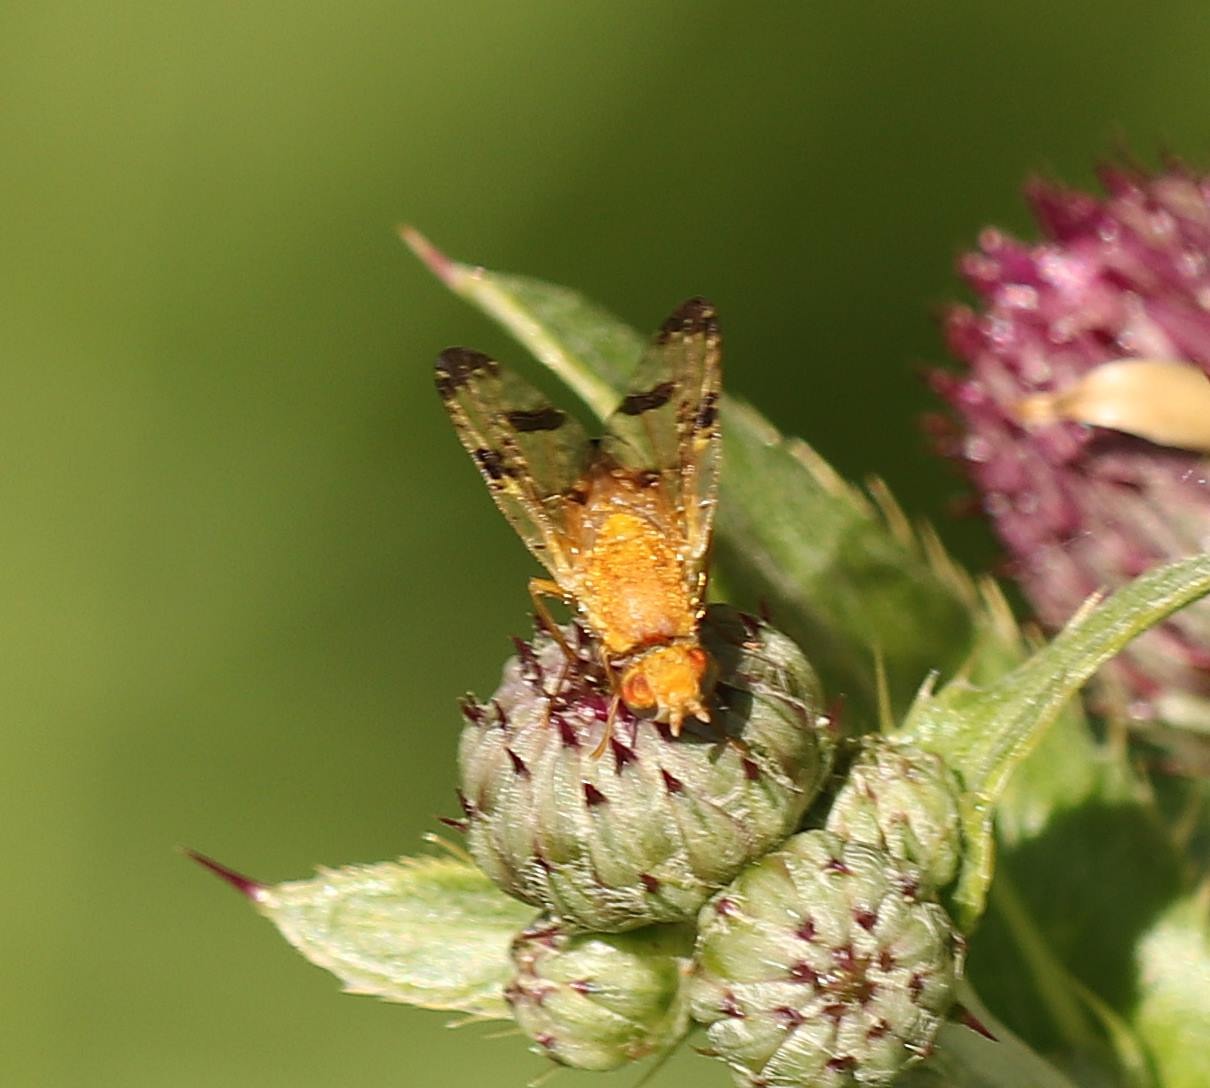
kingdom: Animalia
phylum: Arthropoda
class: Insecta
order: Diptera
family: Tephritidae
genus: Xyphosia
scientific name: Xyphosia miliaria
